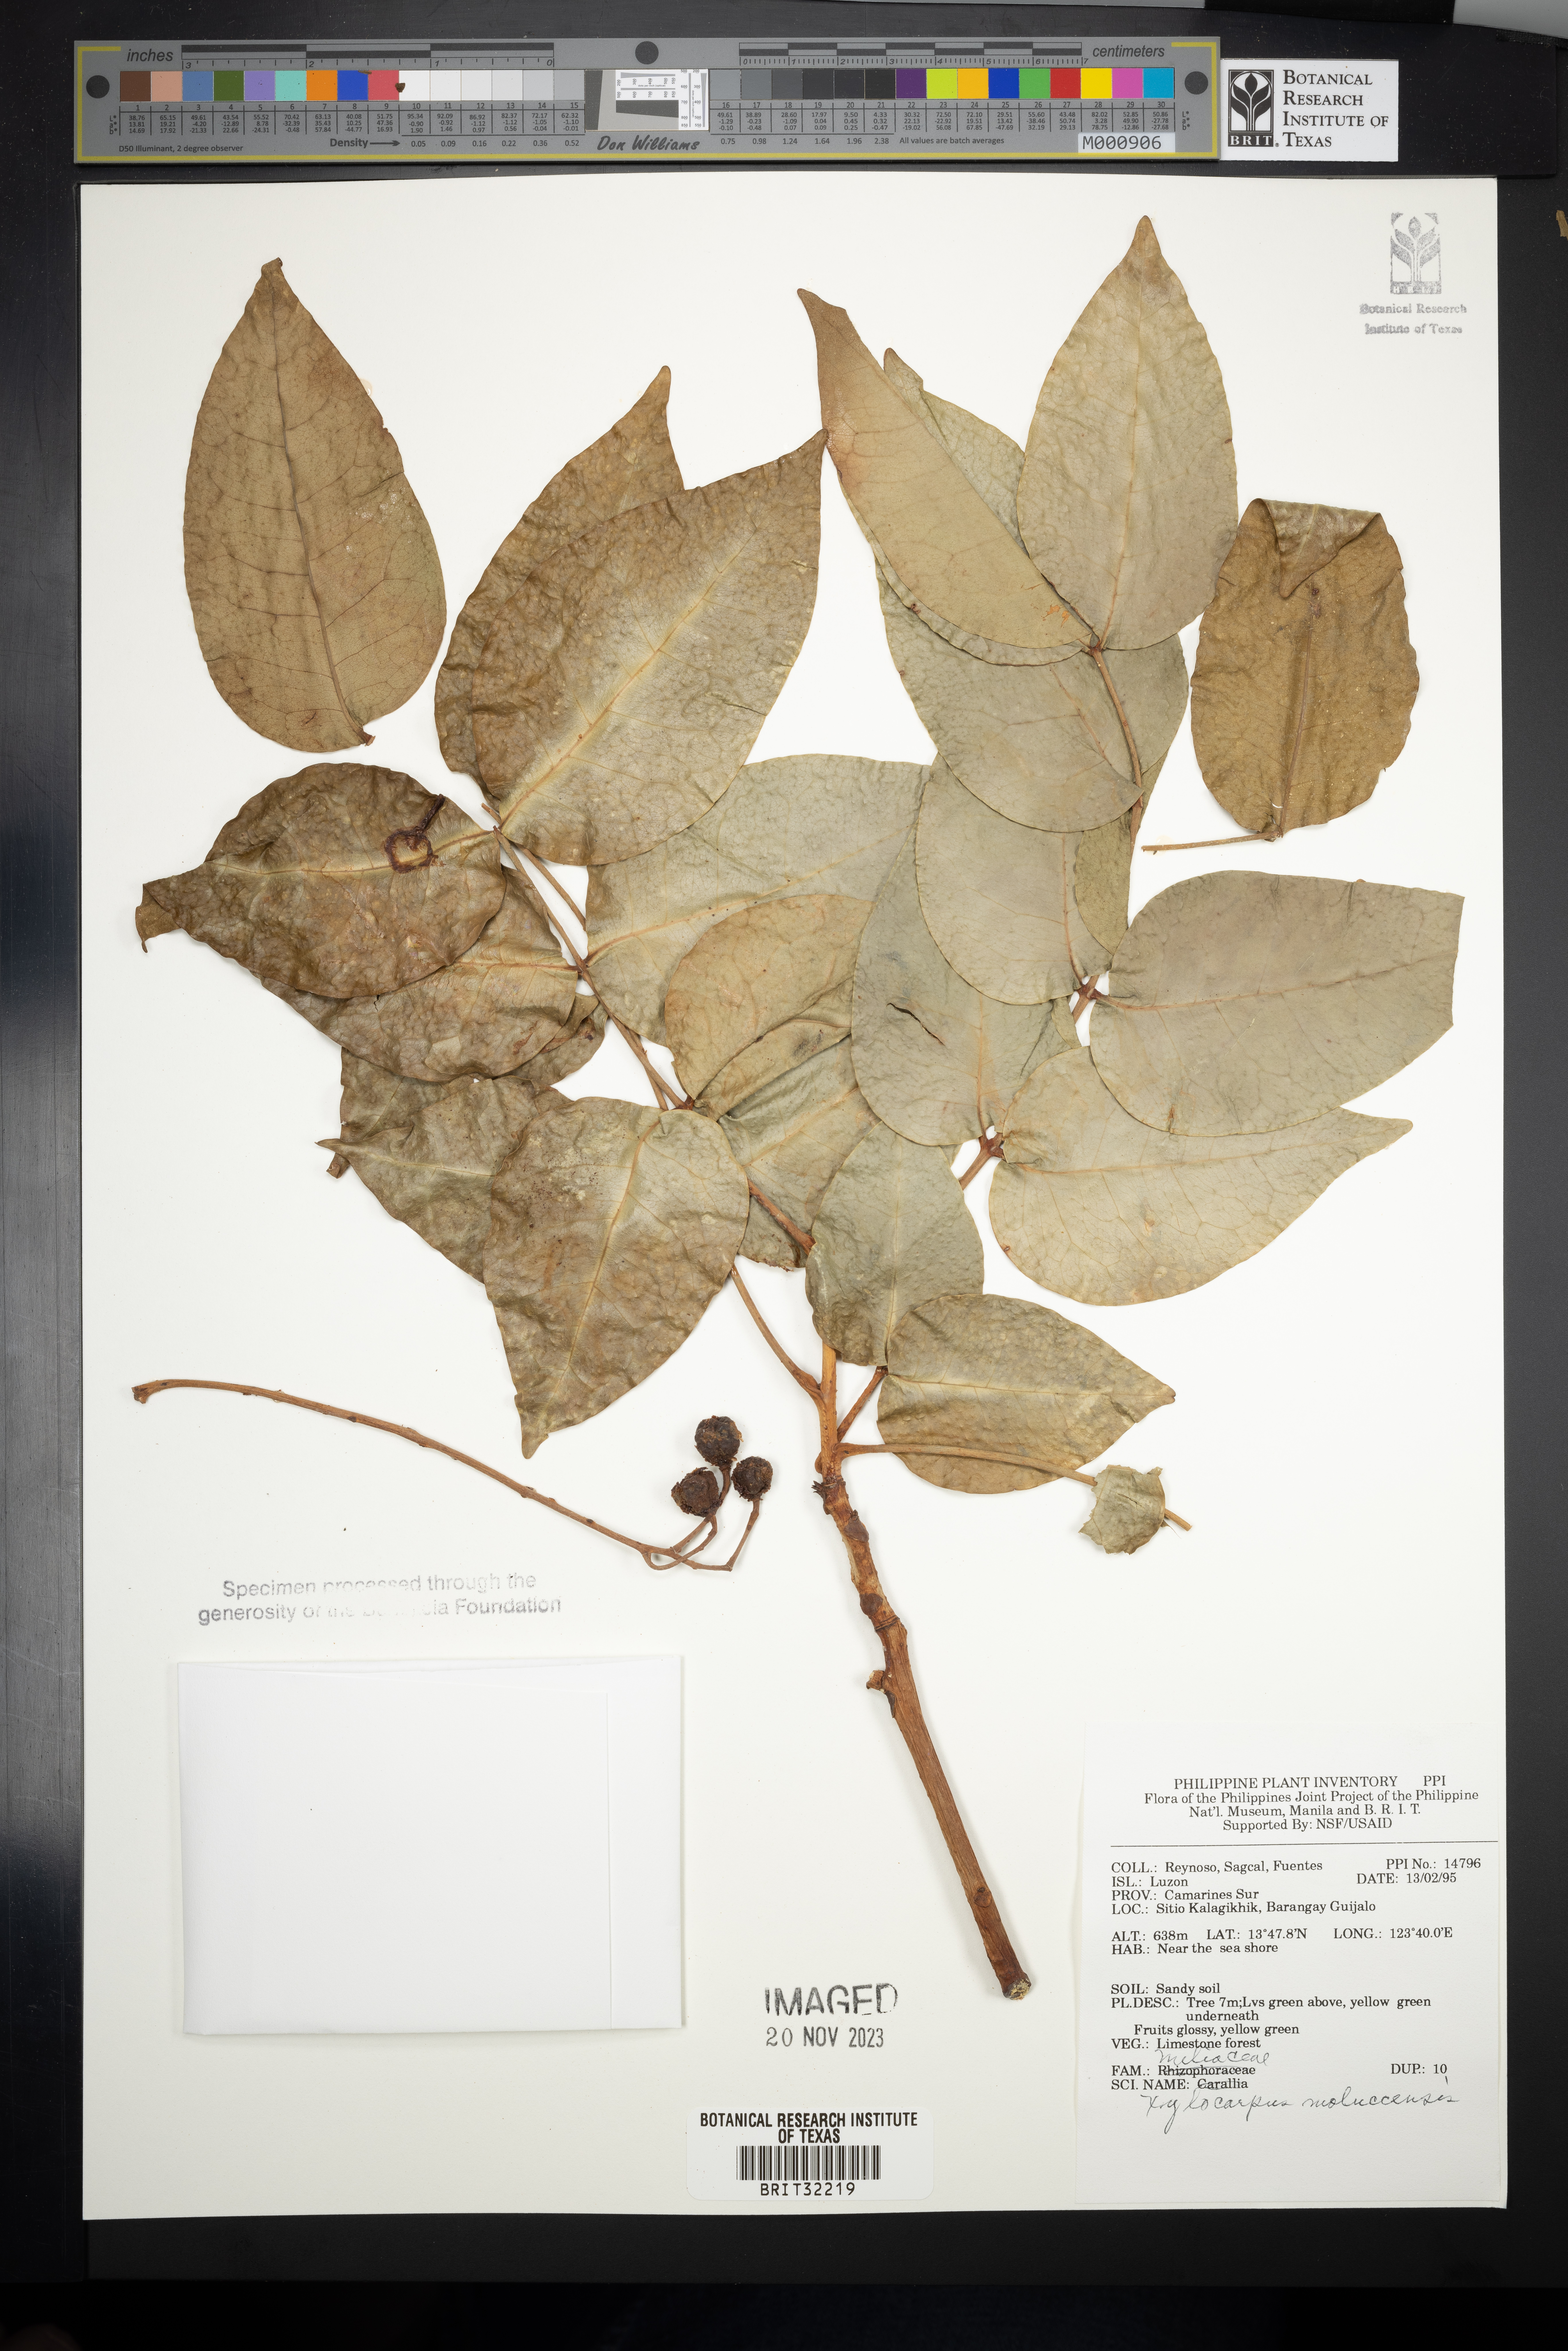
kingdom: Plantae
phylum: Tracheophyta
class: Magnoliopsida
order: Sapindales
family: Meliaceae
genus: Xylocarpus
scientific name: Xylocarpus moluccensis
